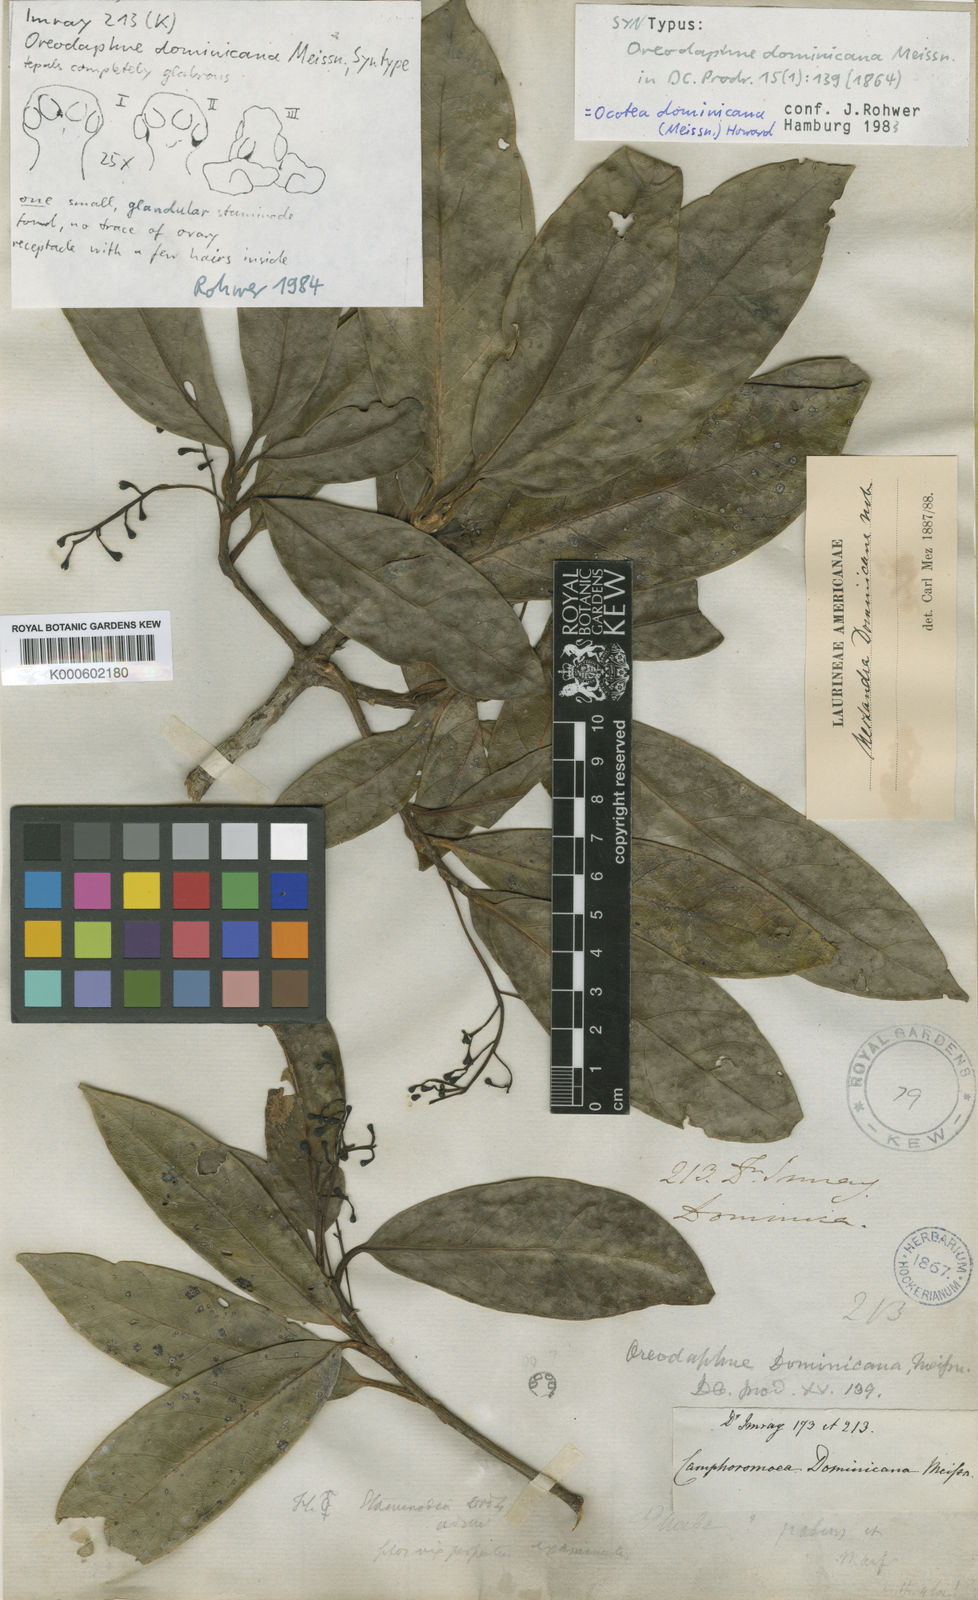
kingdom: Plantae
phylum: Tracheophyta
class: Magnoliopsida
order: Laurales
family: Lauraceae
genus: Ocotea
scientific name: Ocotea dominicana
